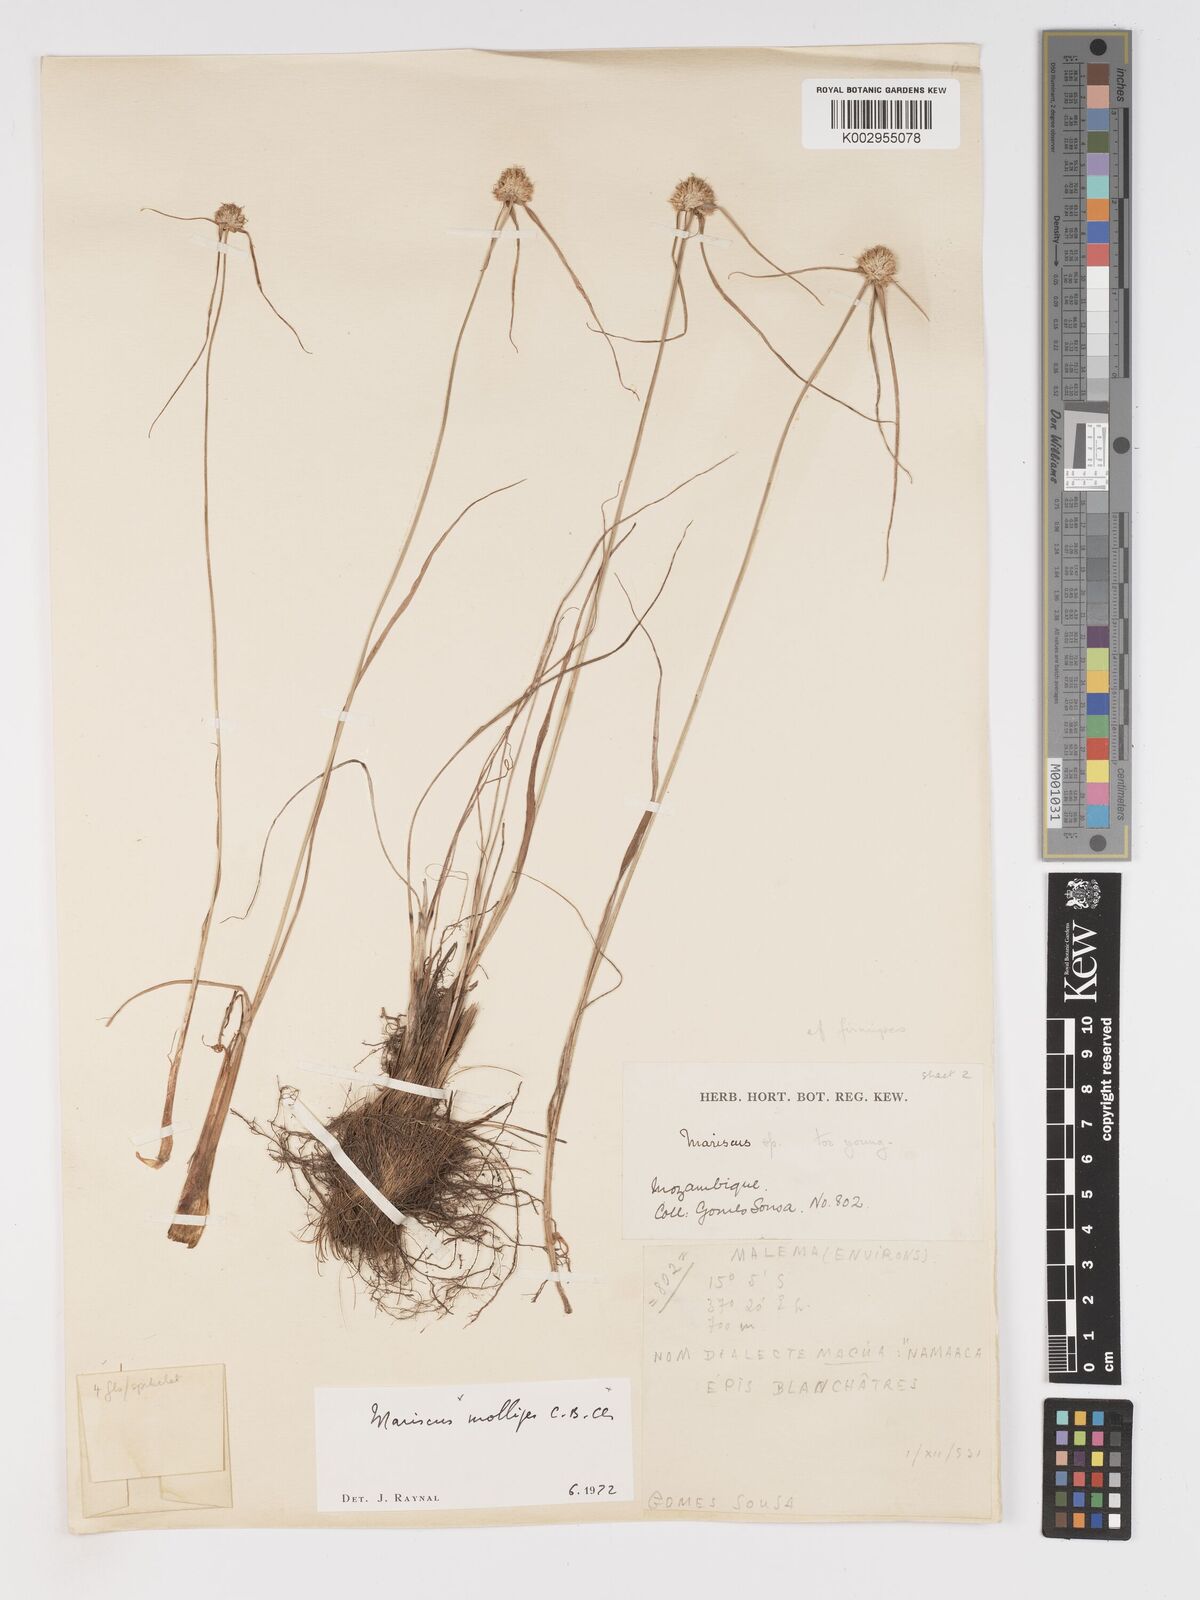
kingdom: Plantae
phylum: Tracheophyta
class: Liliopsida
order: Poales
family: Cyperaceae
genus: Cyperus
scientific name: Cyperus mollipes
